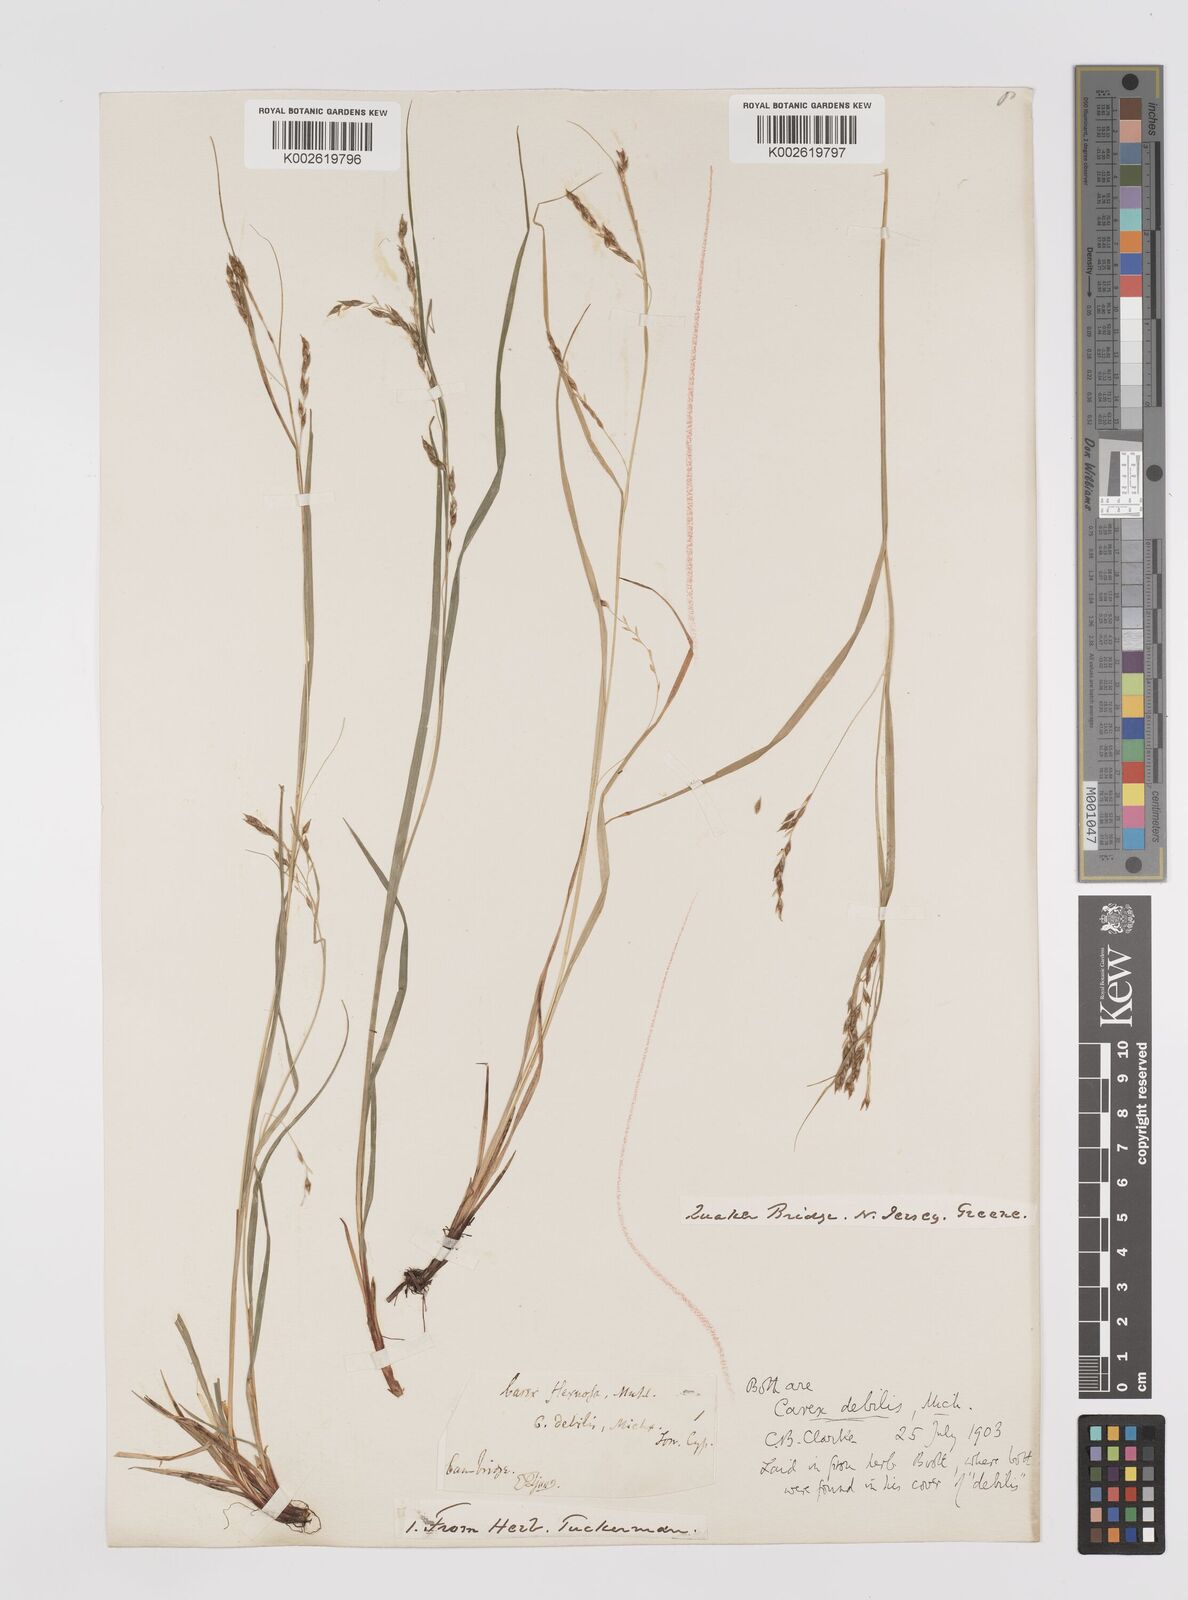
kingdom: Plantae
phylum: Tracheophyta
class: Liliopsida
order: Poales
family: Cyperaceae
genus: Carex
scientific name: Carex debilis
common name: White-edge sedge
